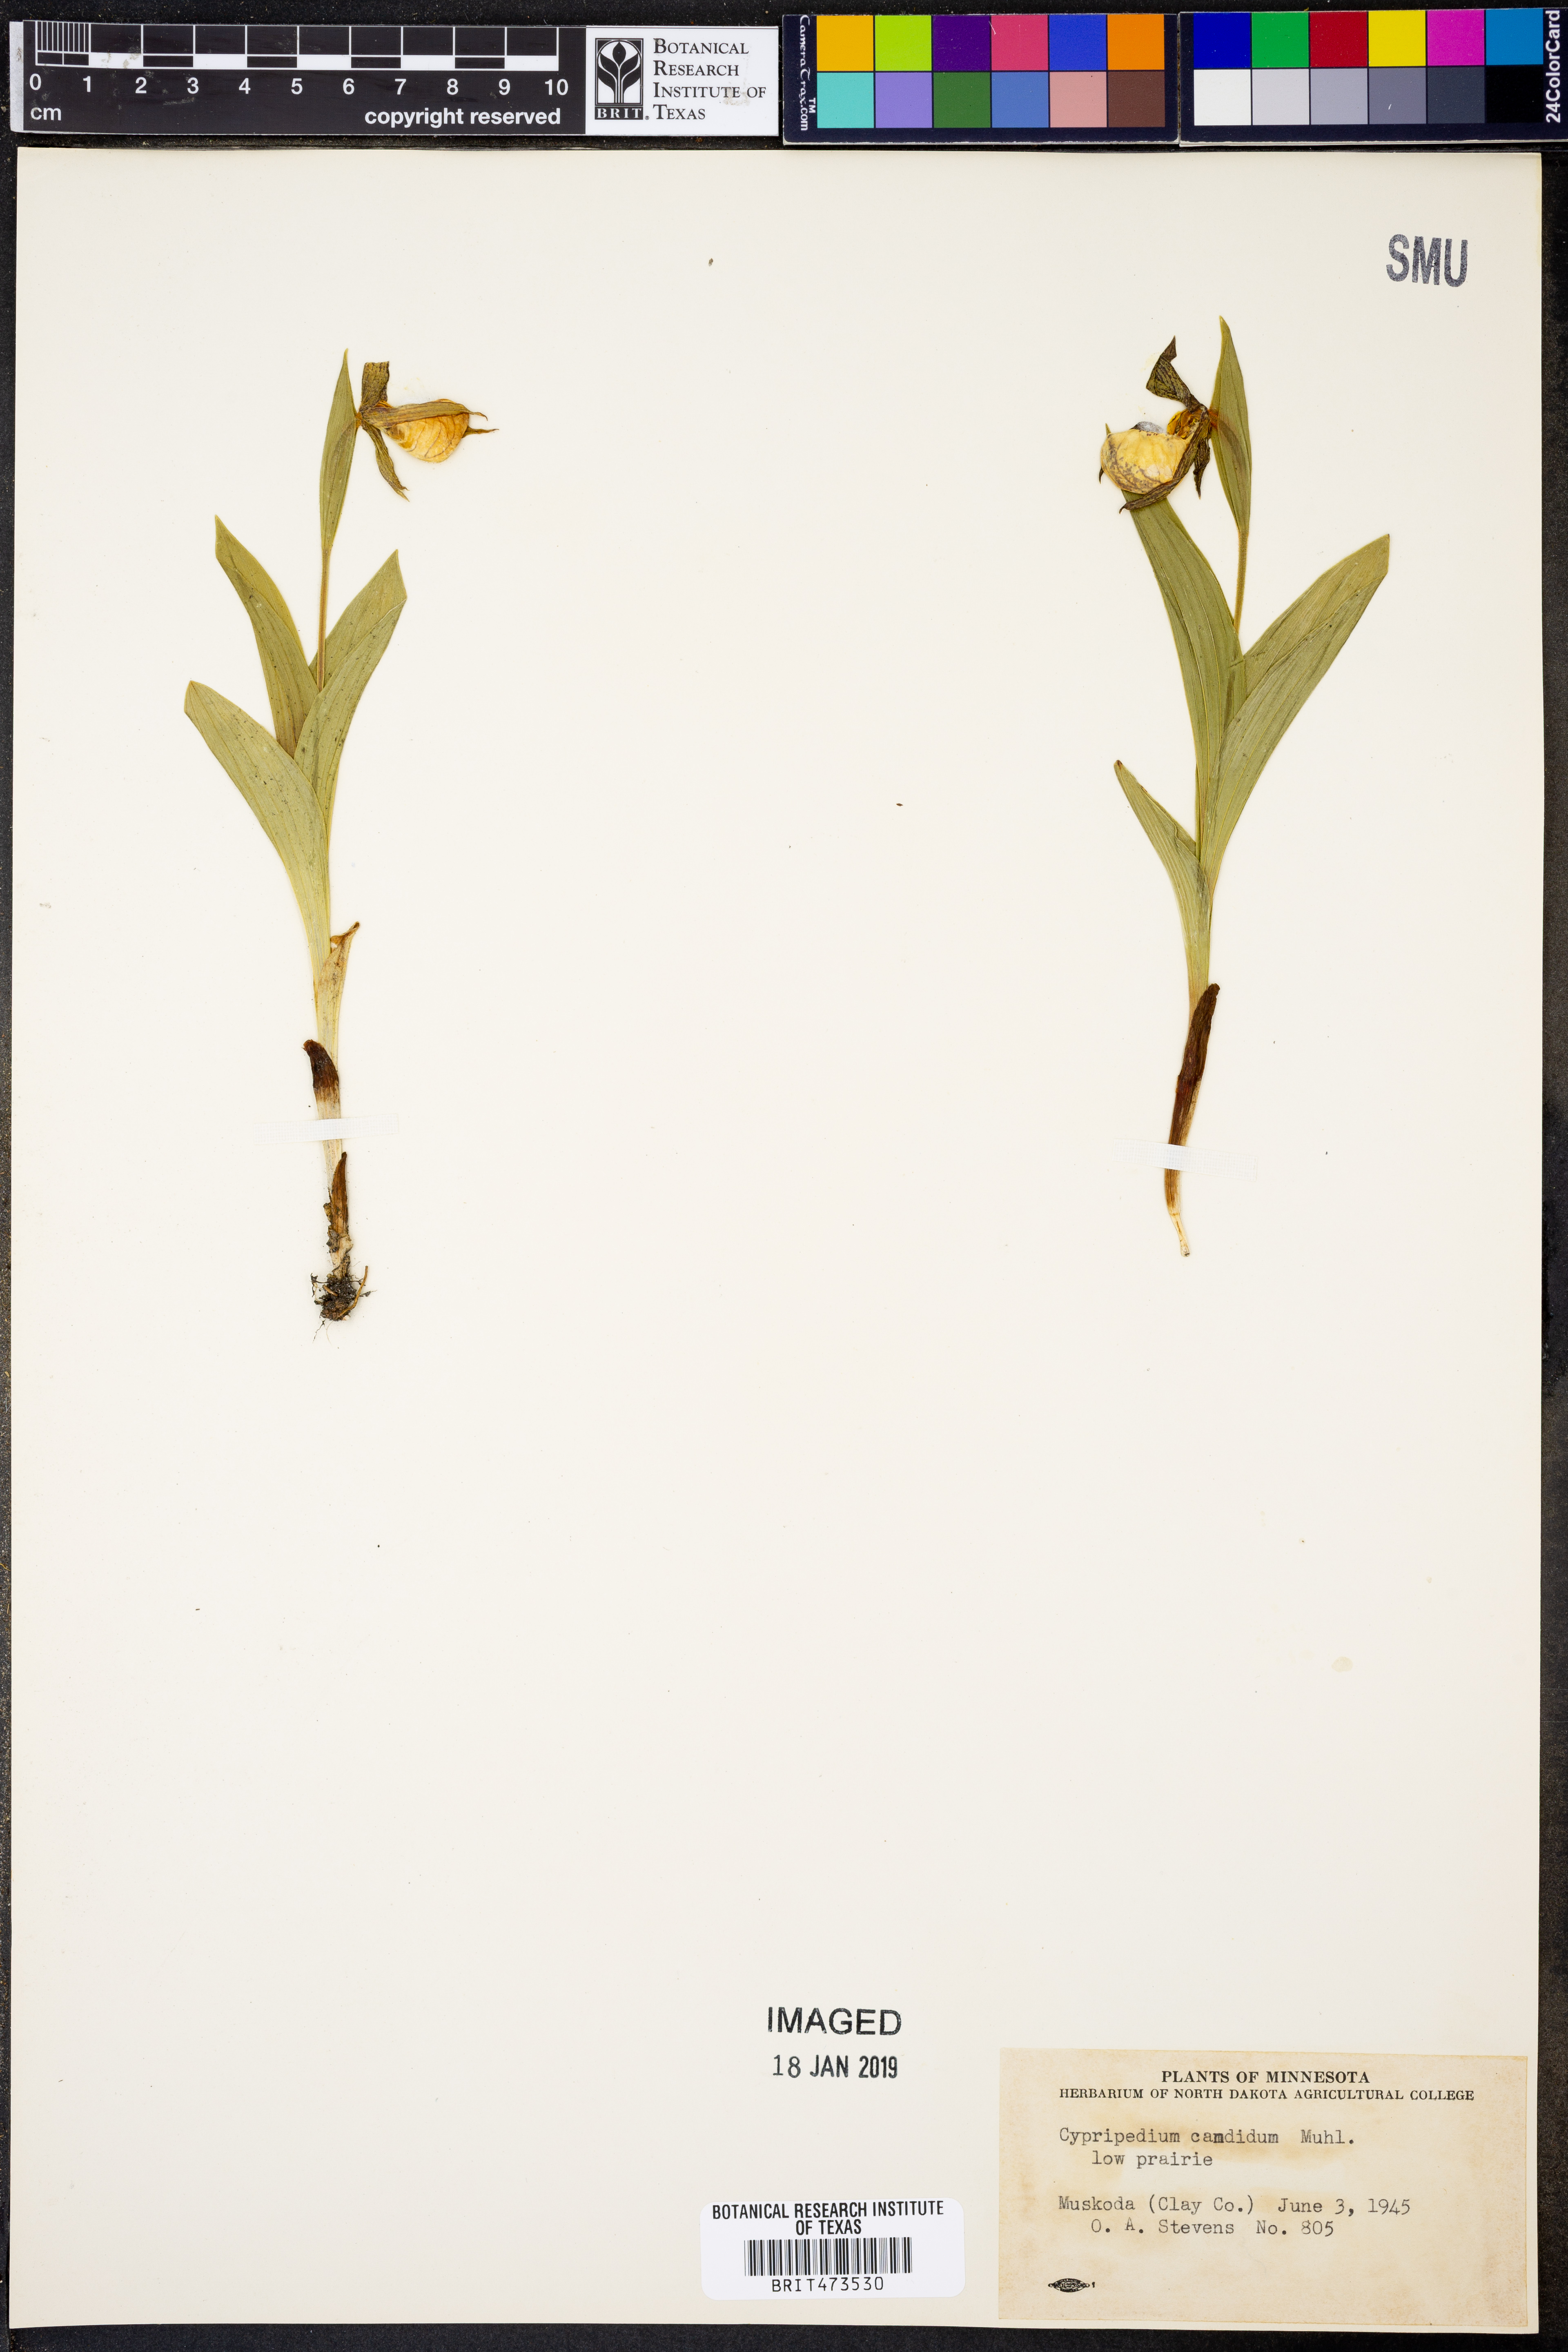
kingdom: Plantae
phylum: Tracheophyta
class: Liliopsida
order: Asparagales
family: Orchidaceae
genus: Cypripedium
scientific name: Cypripedium candidum
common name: White lady's-slipper
